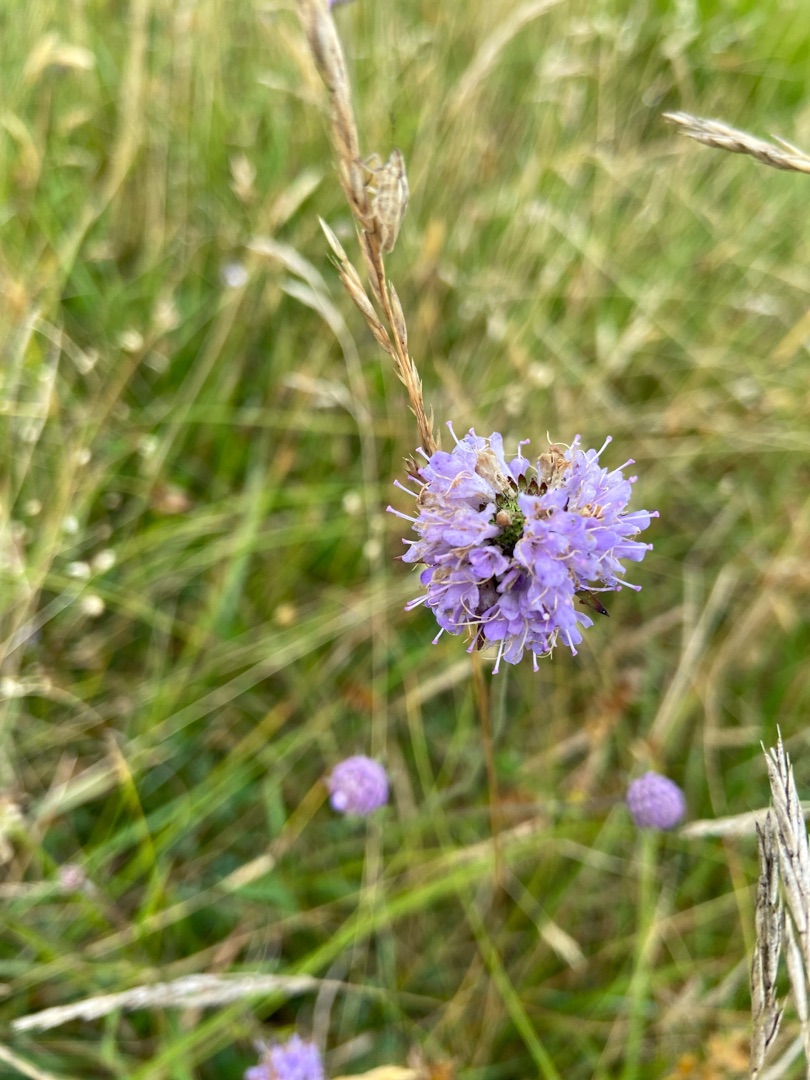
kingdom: Plantae
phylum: Tracheophyta
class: Magnoliopsida
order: Dipsacales
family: Caprifoliaceae
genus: Succisa
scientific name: Succisa pratensis
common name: Djævelsbid
